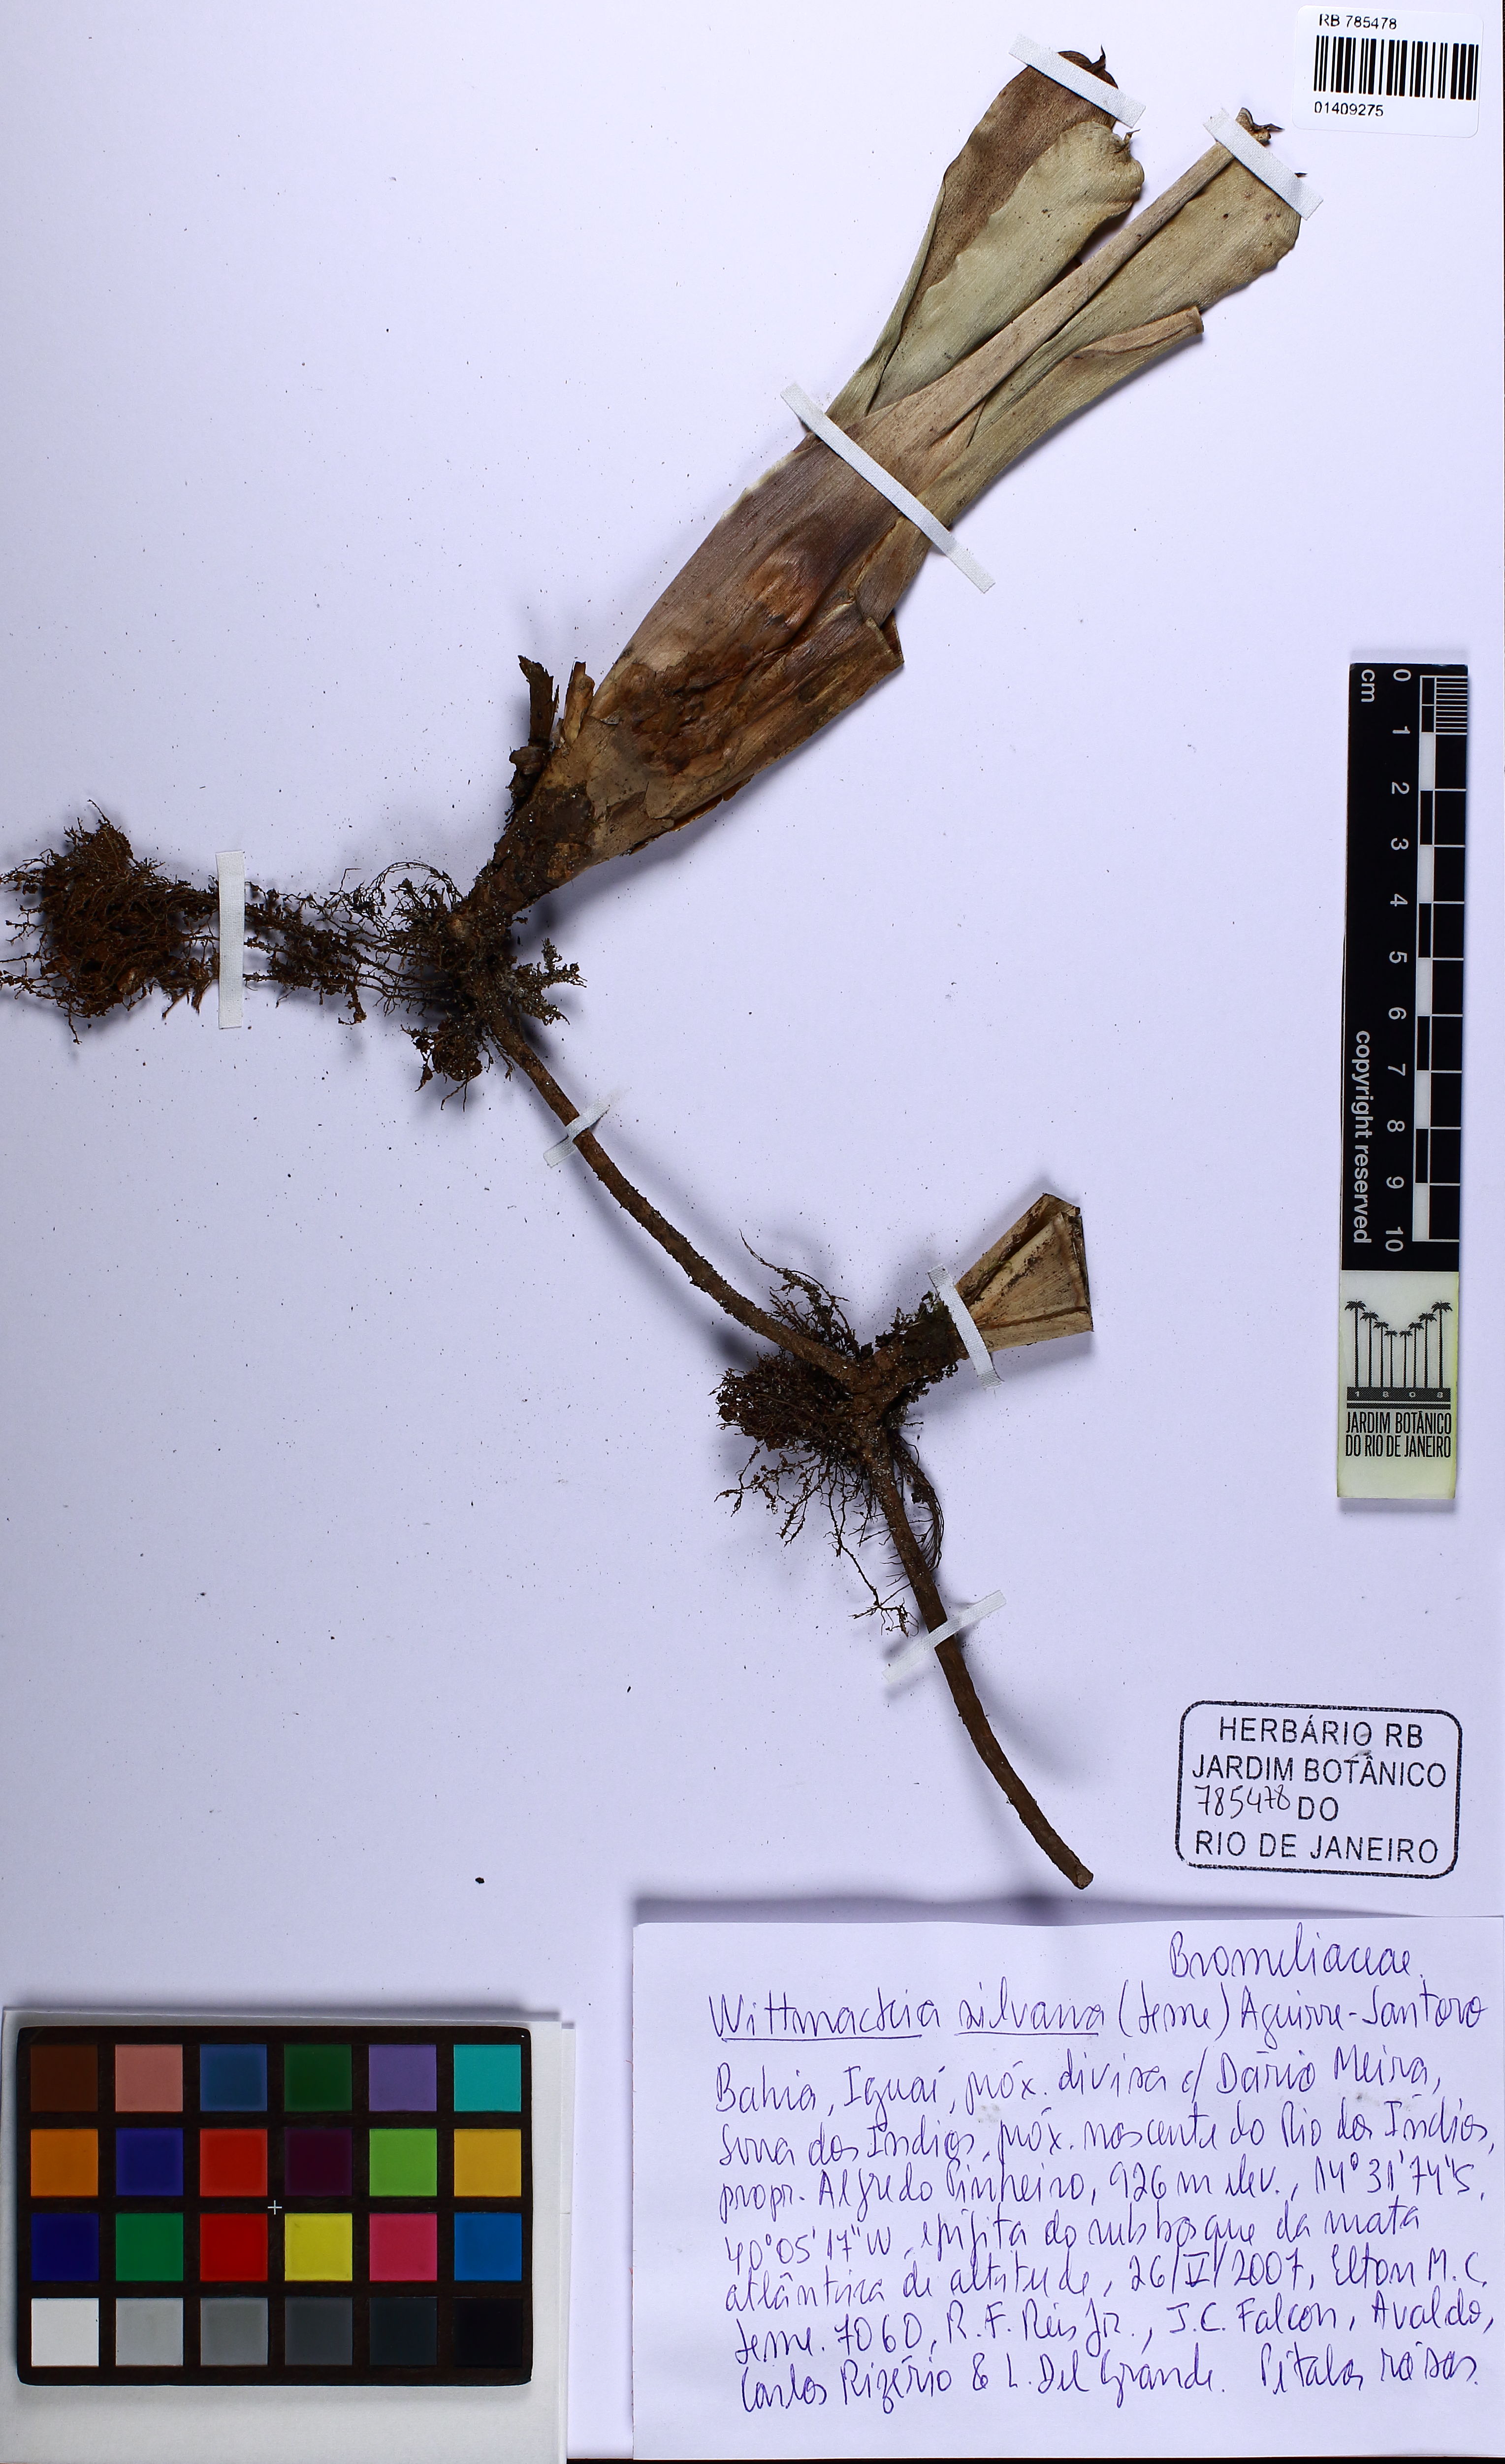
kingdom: Plantae
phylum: Tracheophyta
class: Liliopsida
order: Poales
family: Bromeliaceae
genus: Wittmackia
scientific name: Wittmackia silvana
